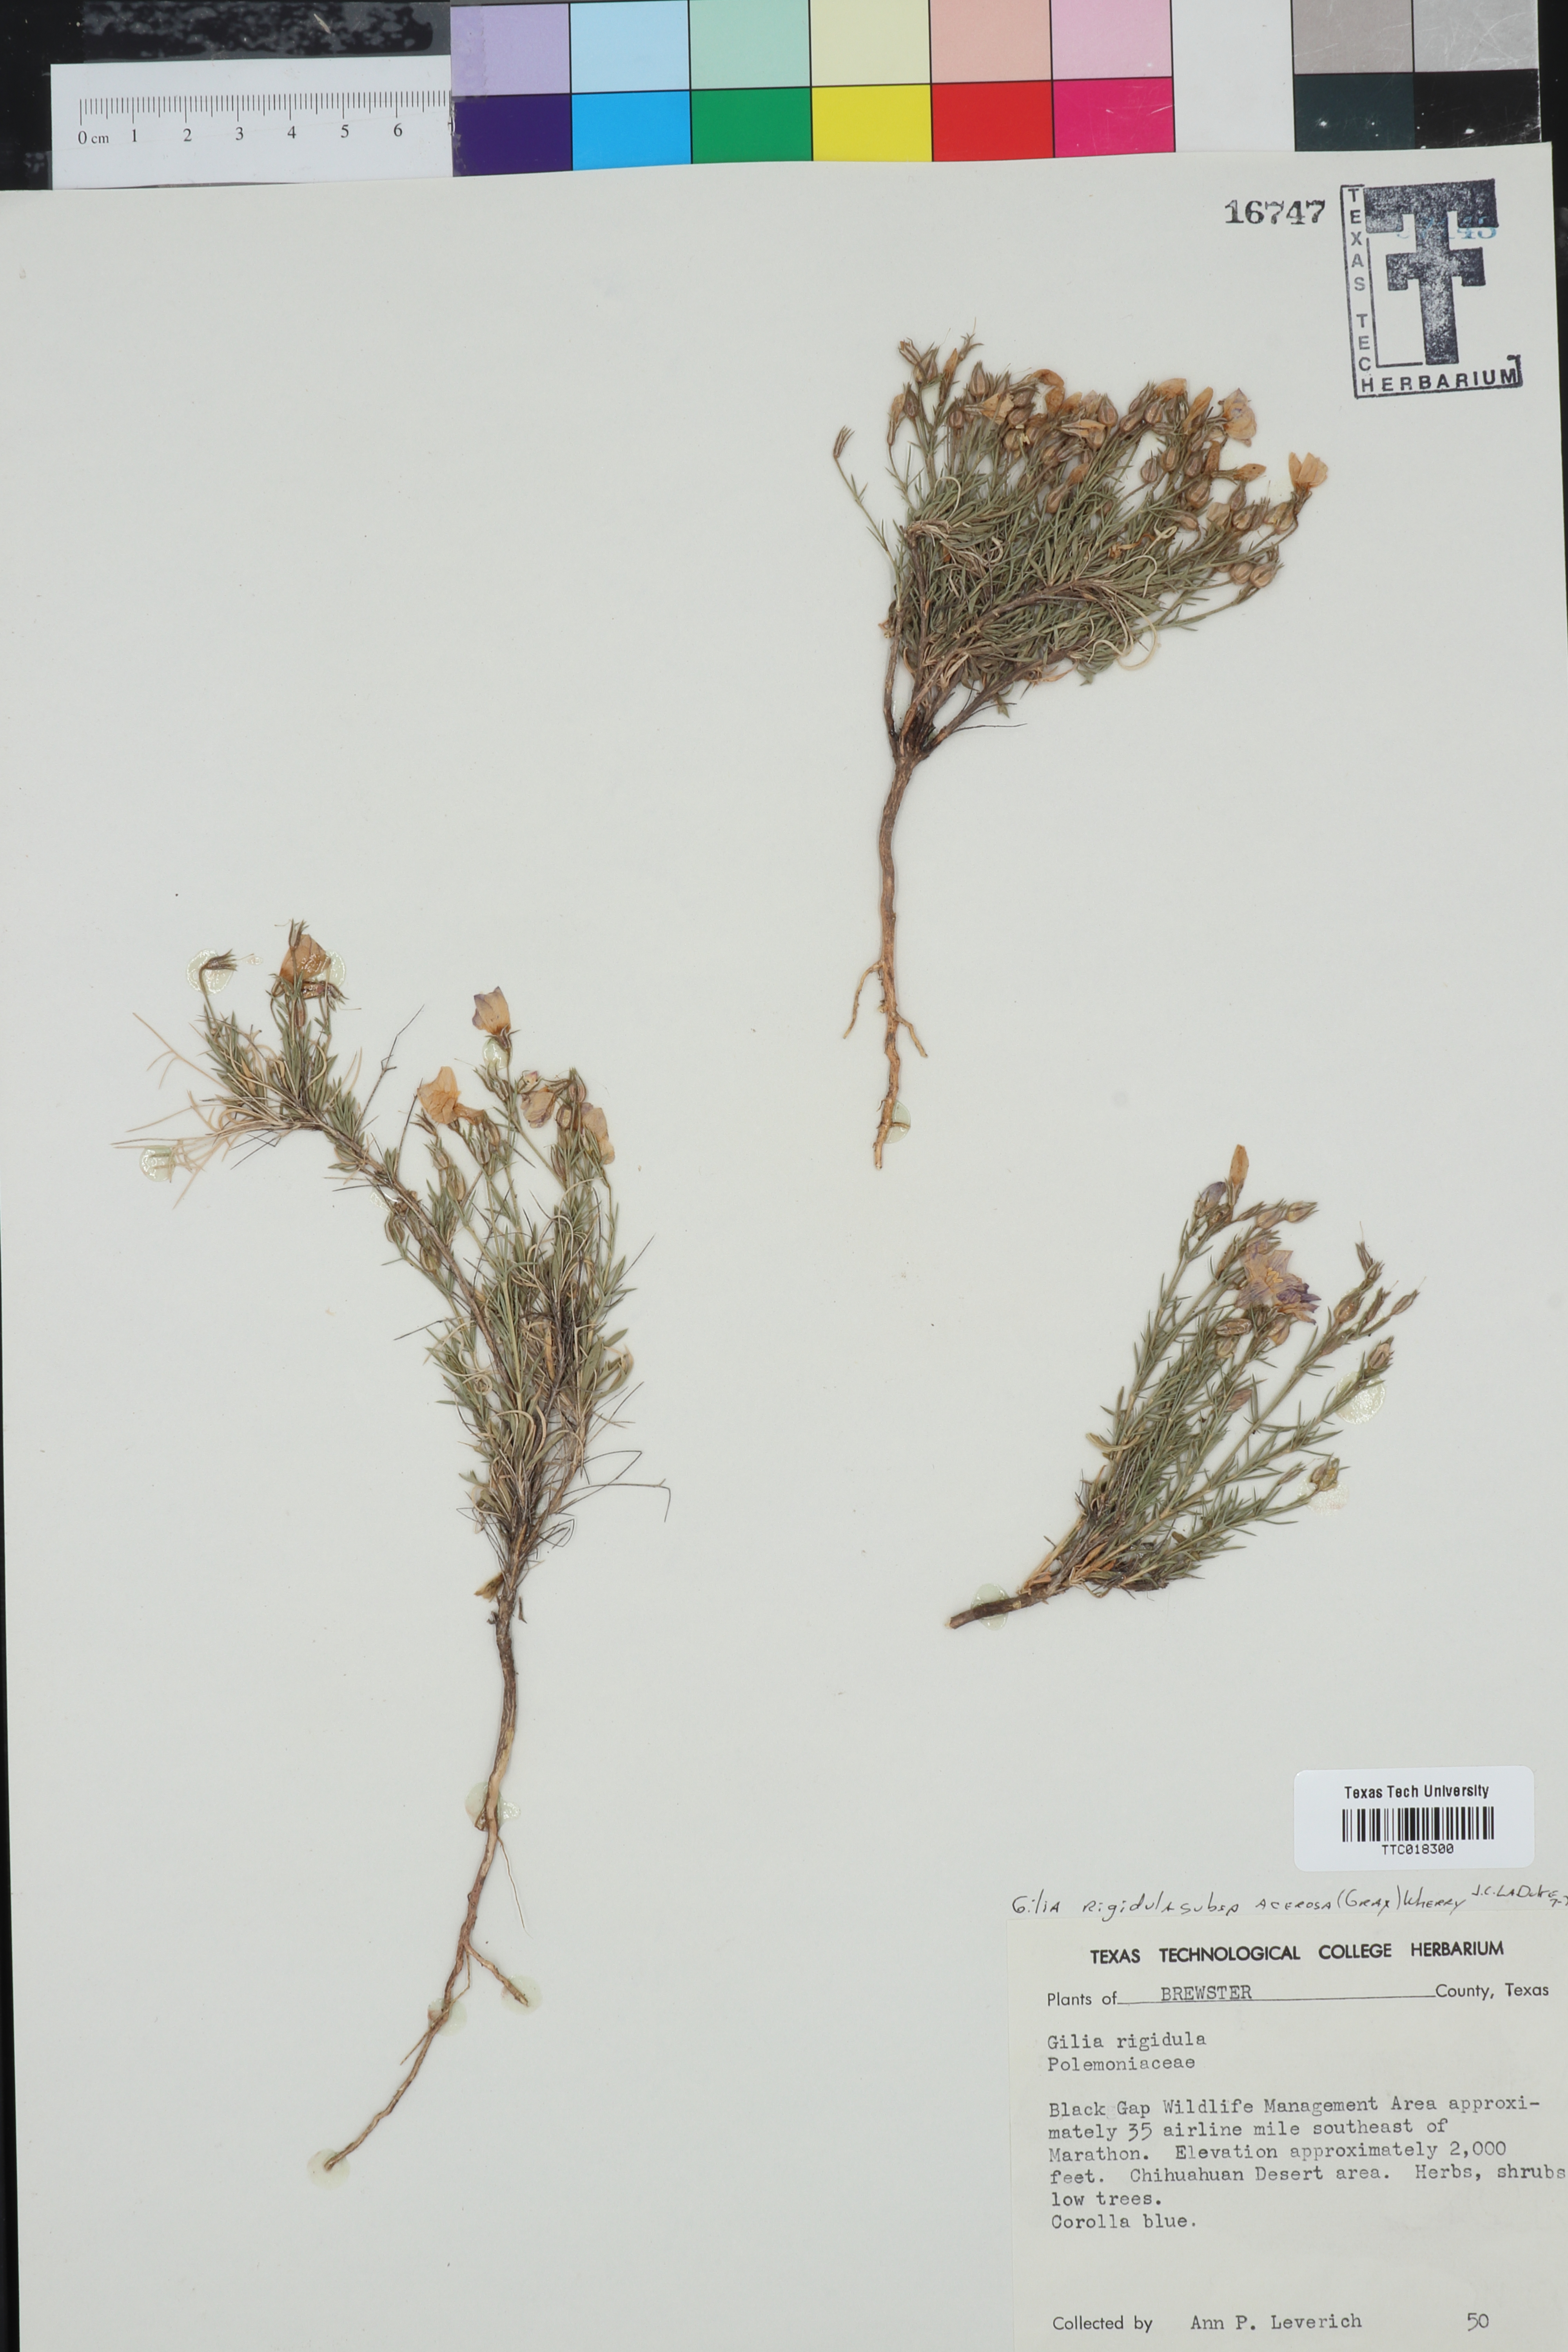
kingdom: Plantae
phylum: Tracheophyta
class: Magnoliopsida
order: Ericales
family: Polemoniaceae
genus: Giliastrum
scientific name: Giliastrum acerosum
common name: Bluebowls
